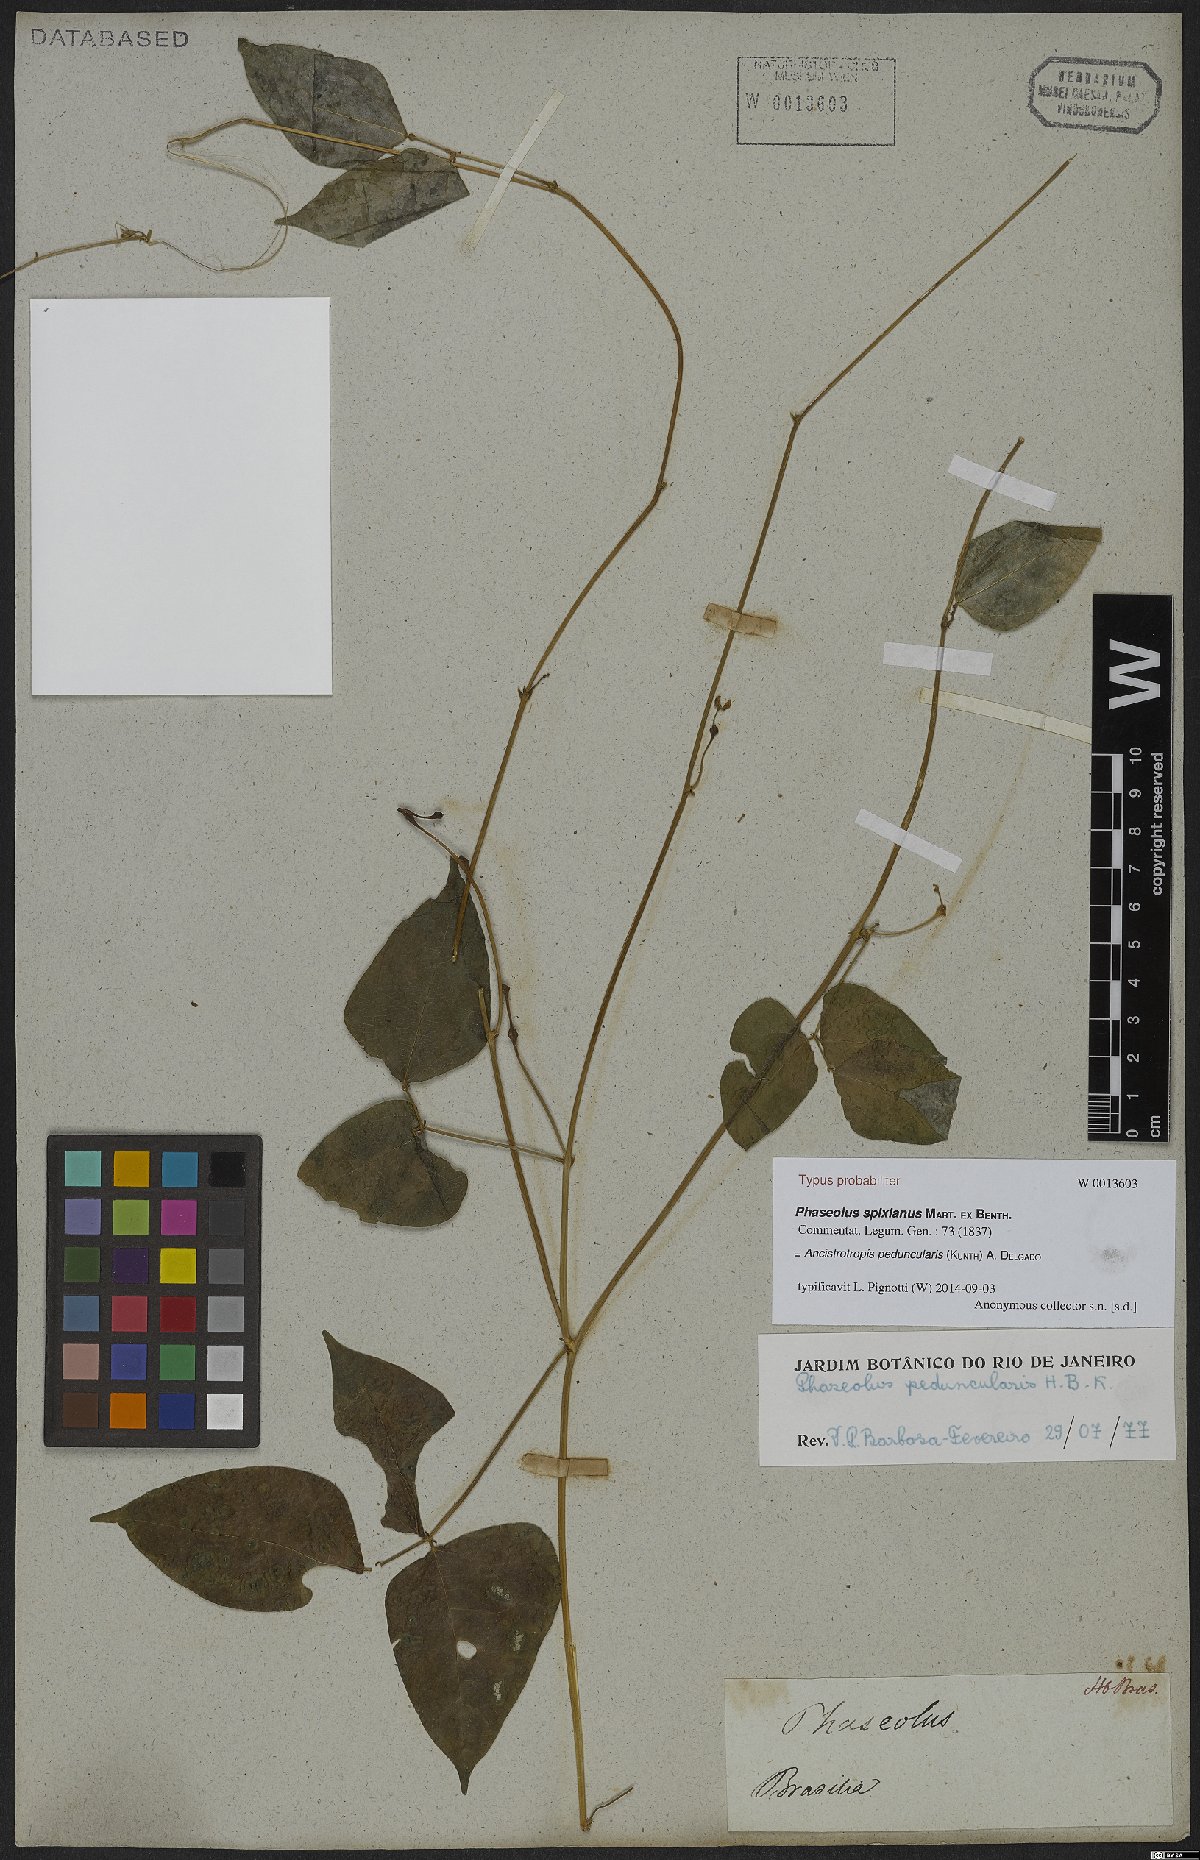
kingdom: Plantae
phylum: Tracheophyta
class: Magnoliopsida
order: Fabales
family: Fabaceae
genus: Ancistrotropis
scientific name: Ancistrotropis peduncularis
